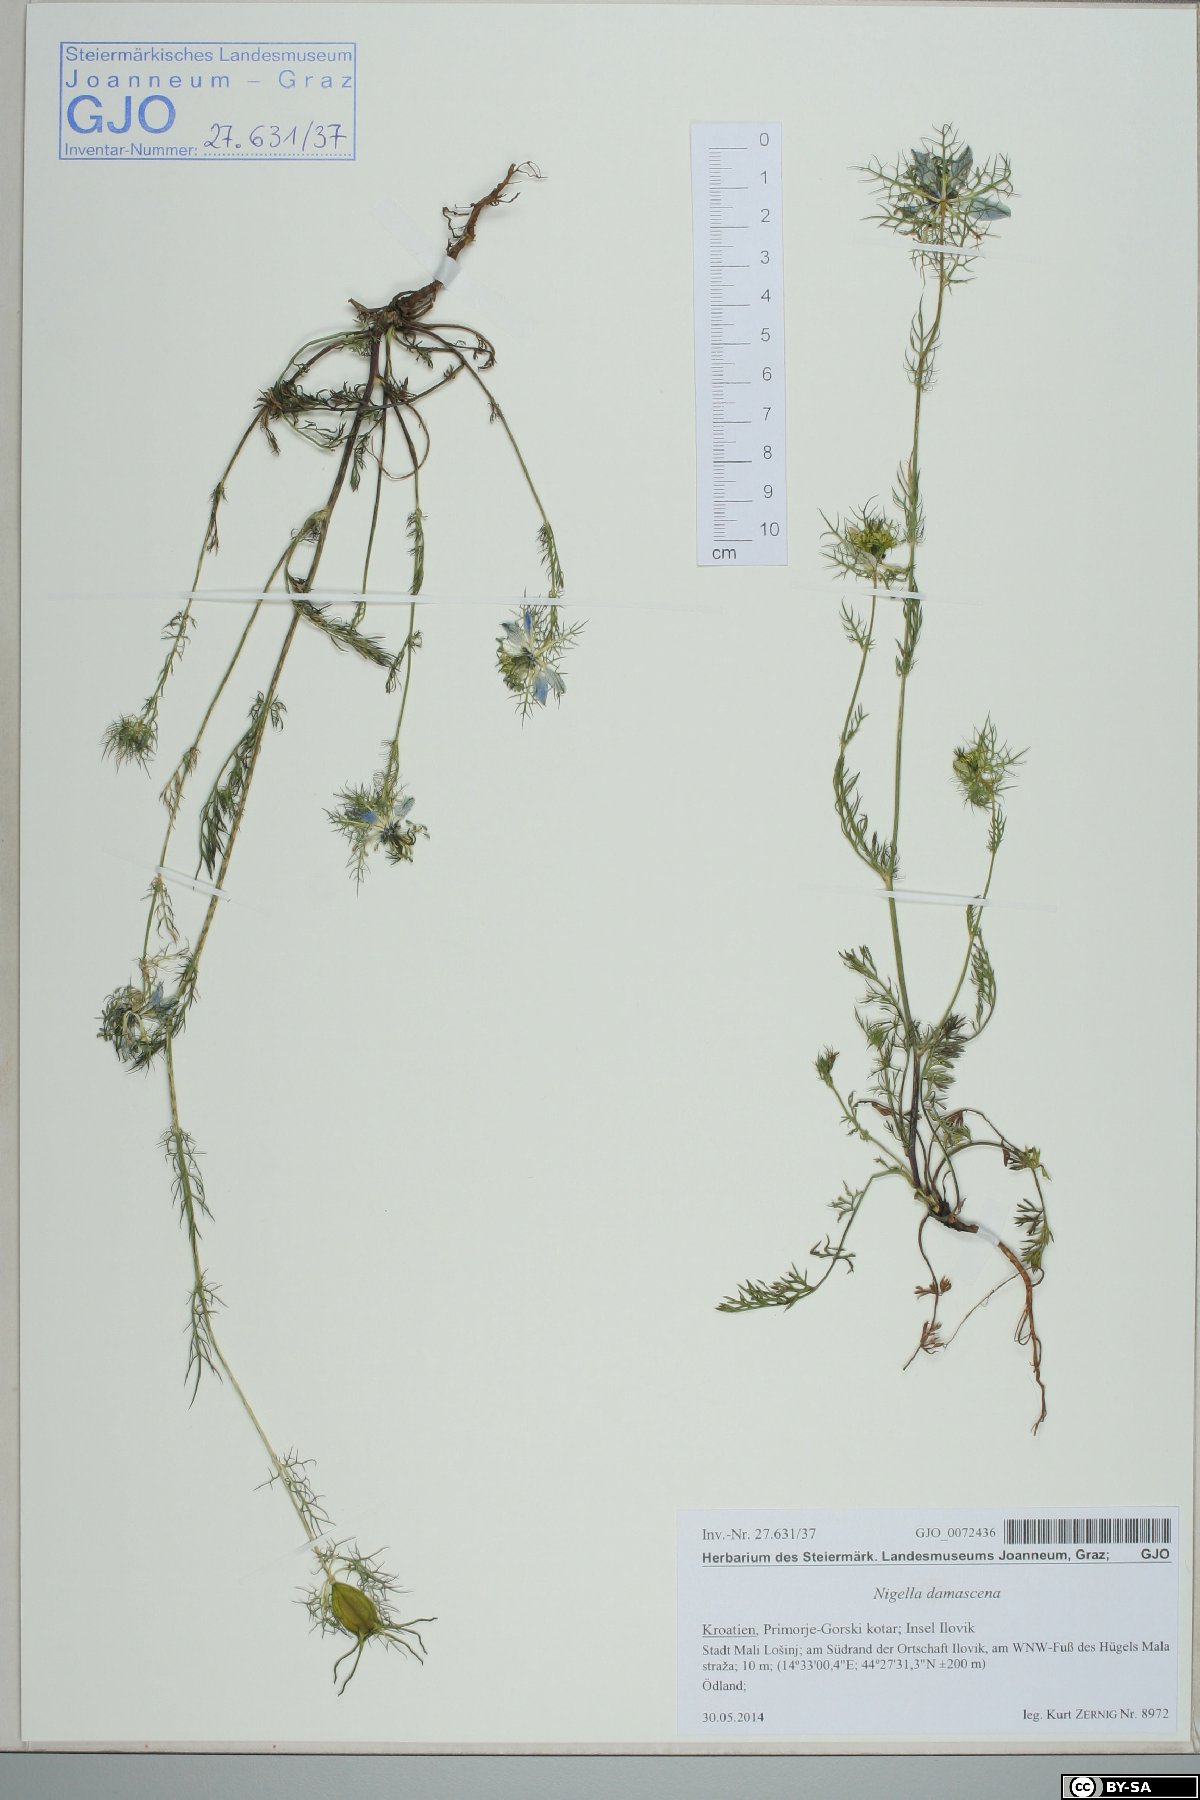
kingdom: Plantae
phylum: Tracheophyta
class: Magnoliopsida
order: Ranunculales
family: Ranunculaceae
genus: Nigella
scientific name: Nigella damascena
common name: Love-in-a-mist
